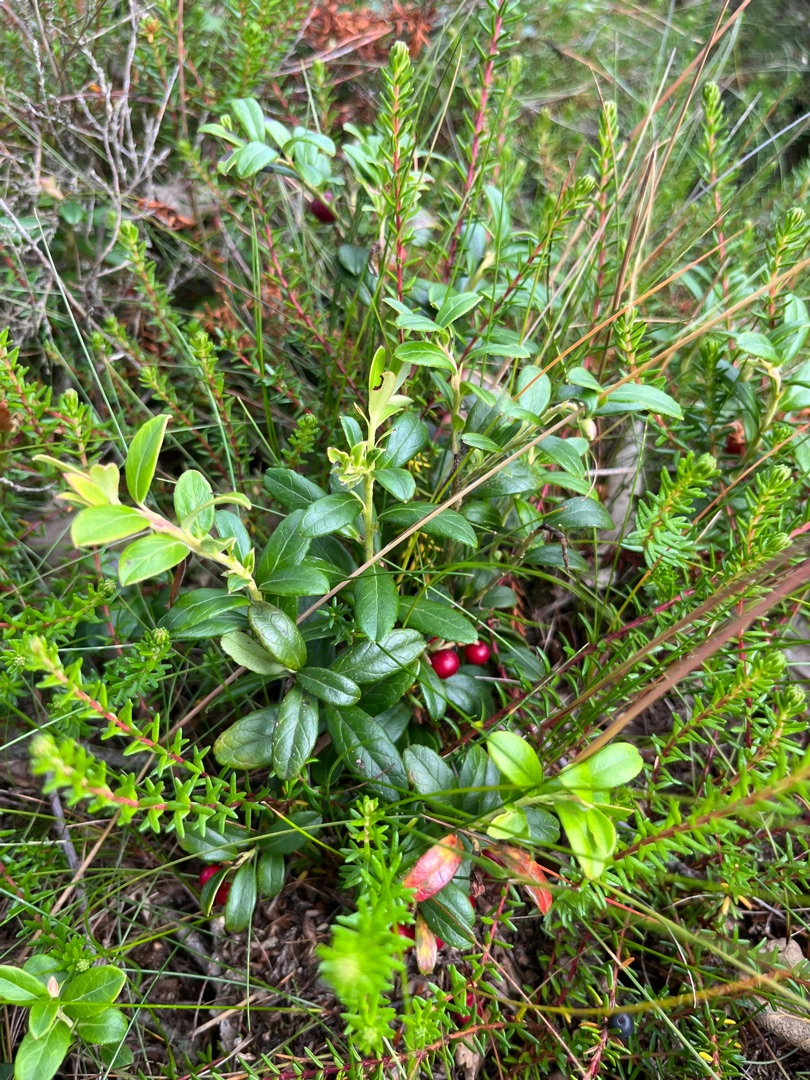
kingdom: Plantae
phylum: Tracheophyta
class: Magnoliopsida
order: Ericales
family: Ericaceae
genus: Vaccinium
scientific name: Vaccinium vitis-idaea
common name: Tyttebær
